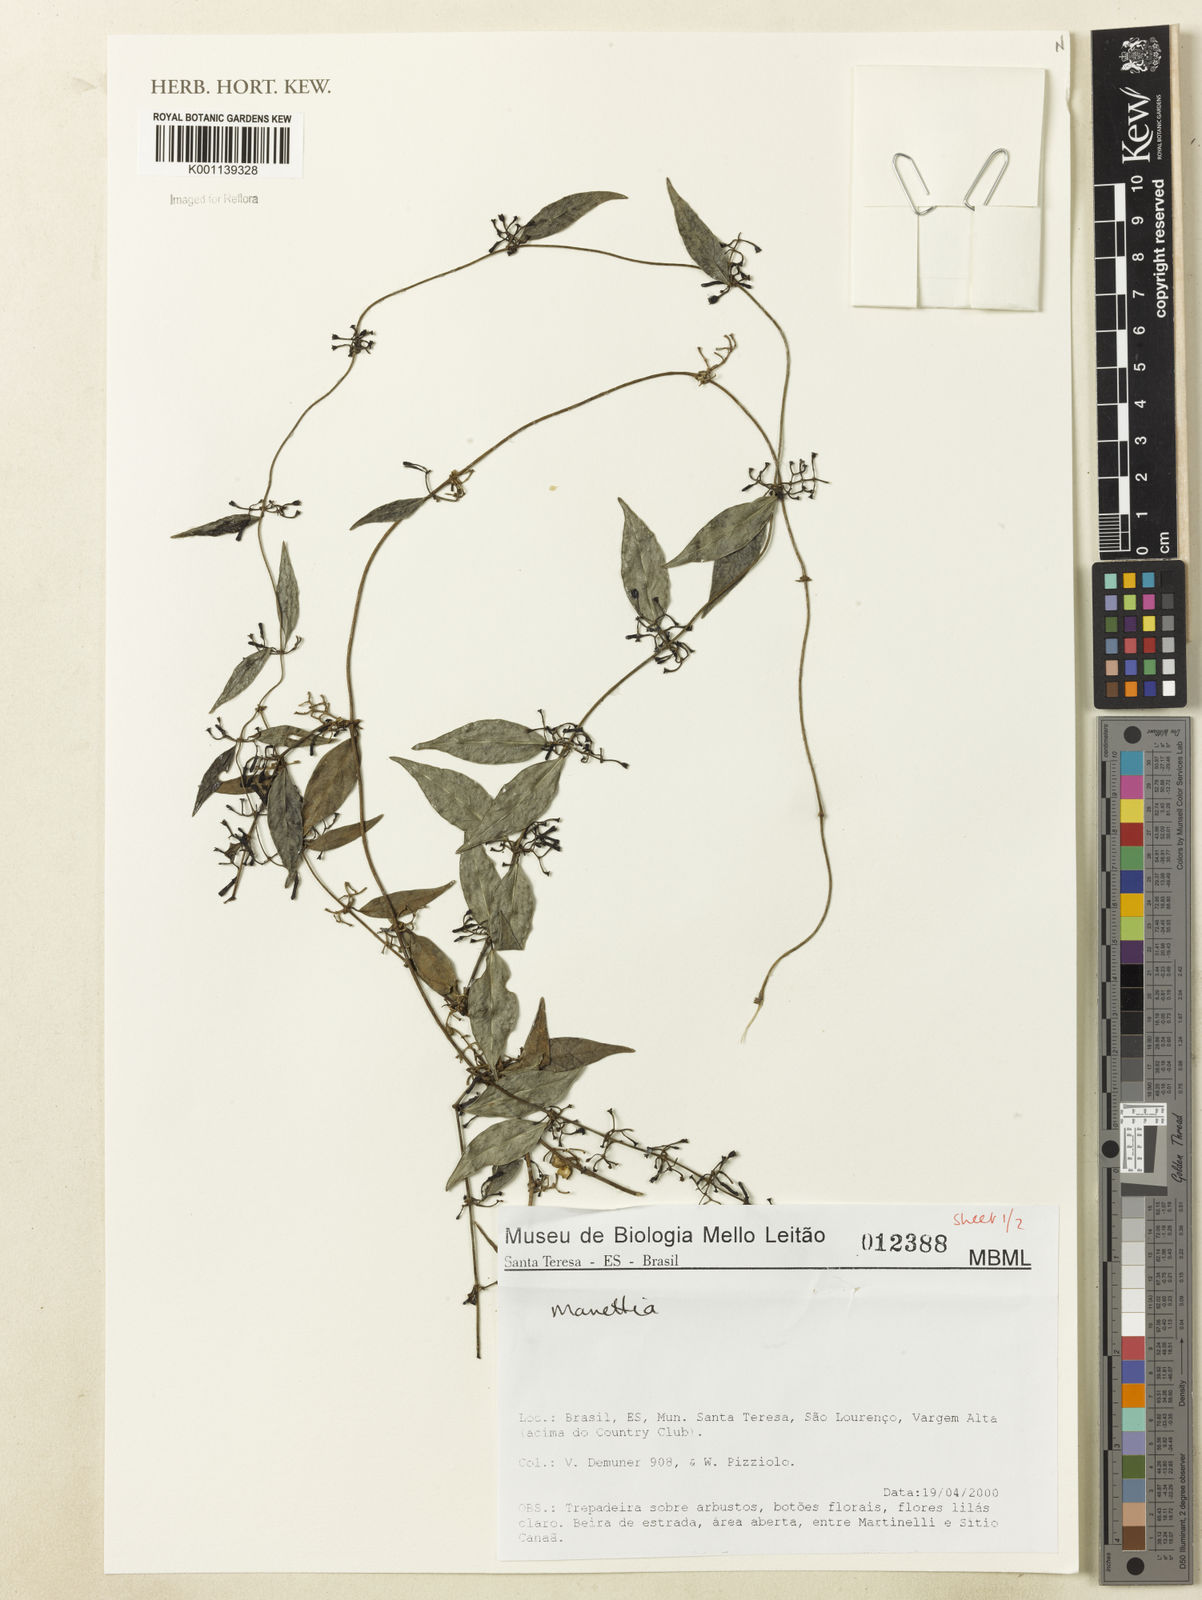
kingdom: Plantae
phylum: Tracheophyta
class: Magnoliopsida
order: Gentianales
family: Rubiaceae
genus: Manettia
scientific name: Manettia
